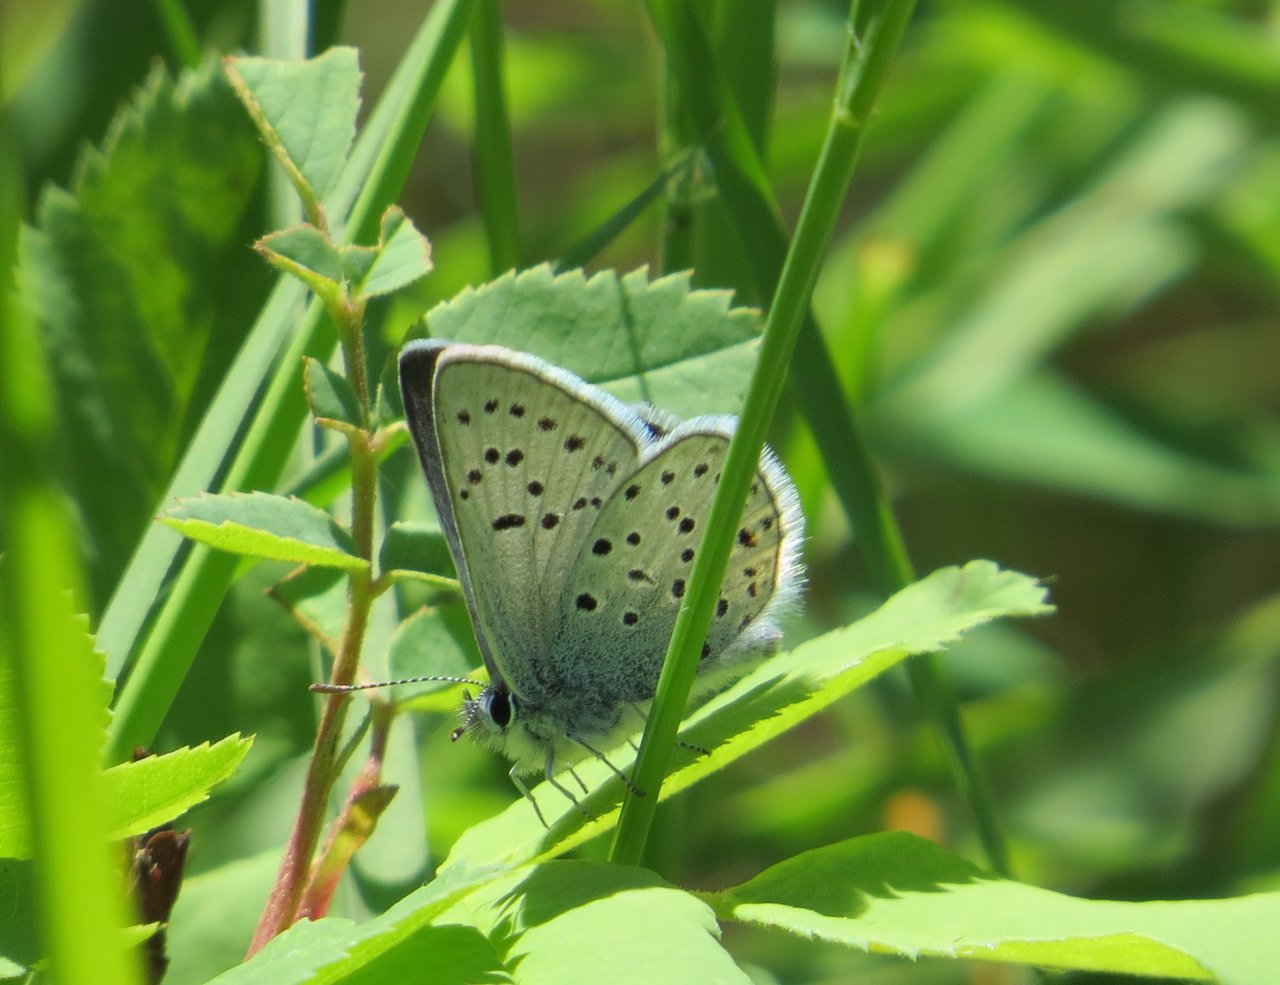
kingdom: Animalia
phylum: Arthropoda
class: Insecta
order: Lepidoptera
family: Lycaenidae
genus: Plebejus
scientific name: Plebejus saepiolus
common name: Greenish Blue
